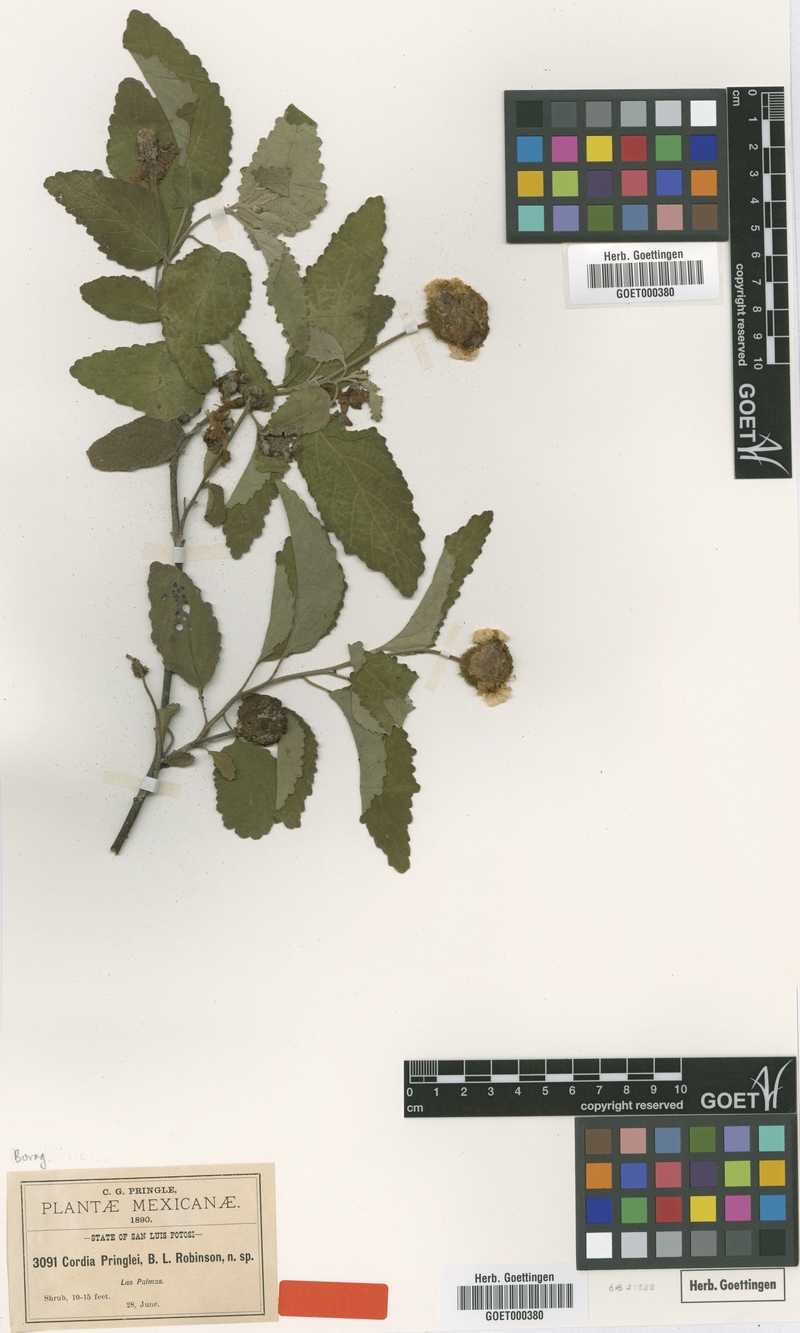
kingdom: Plantae
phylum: Tracheophyta
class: Magnoliopsida
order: Boraginales
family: Cordiaceae
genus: Varronia
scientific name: Varronia macrocephala
